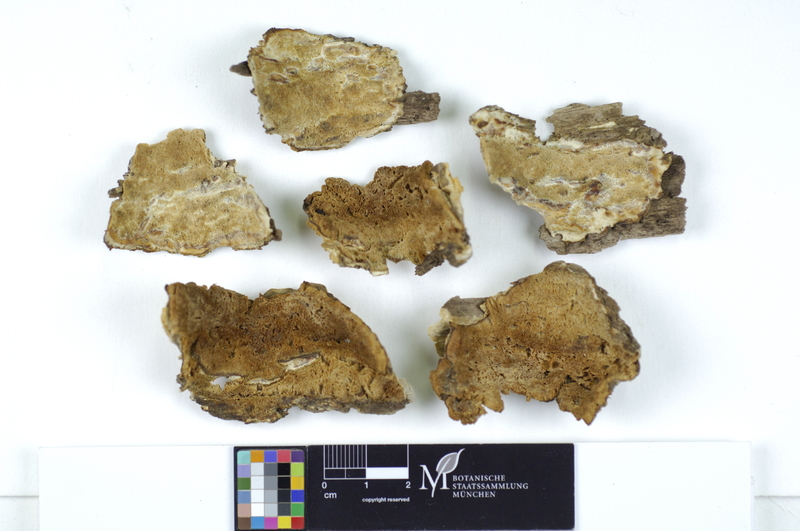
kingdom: Plantae
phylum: Tracheophyta
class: Magnoliopsida
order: Malpighiales
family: Salicaceae
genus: Populus
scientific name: Populus
